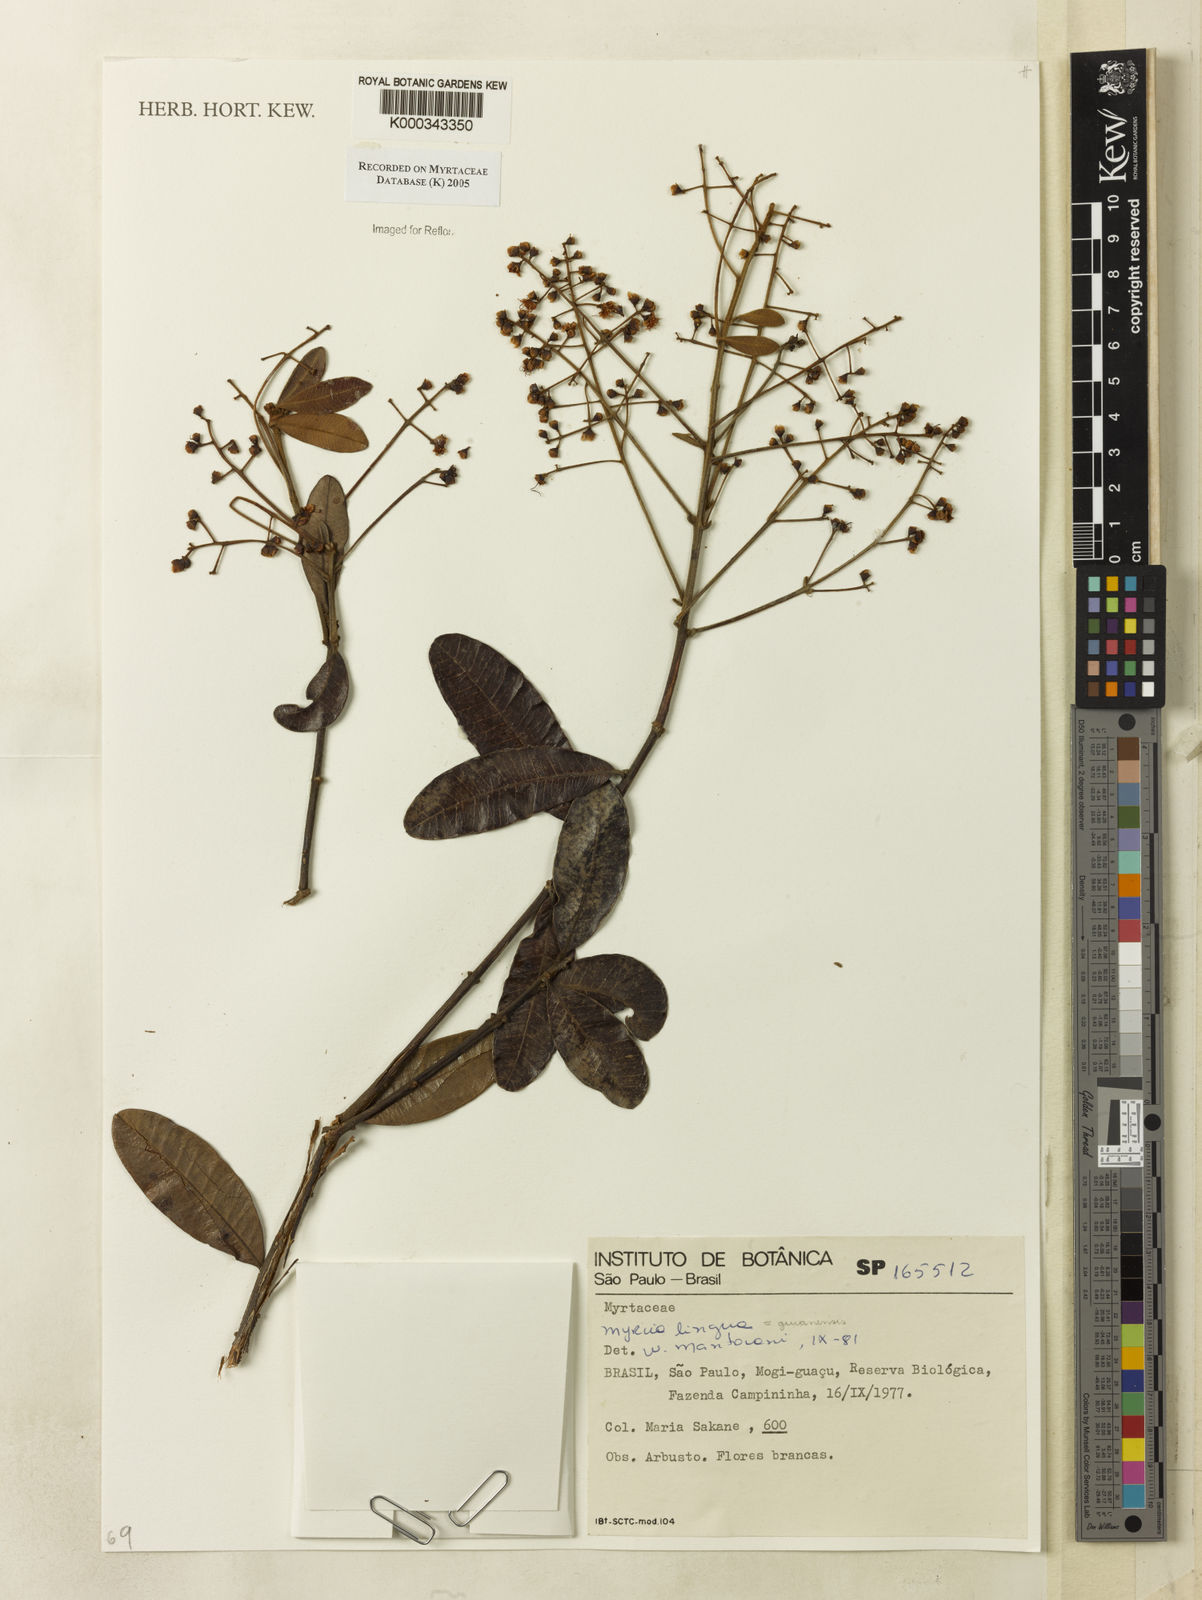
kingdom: Plantae
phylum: Tracheophyta
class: Magnoliopsida
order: Myrtales
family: Myrtaceae
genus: Myrcia
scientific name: Myrcia guianensis
